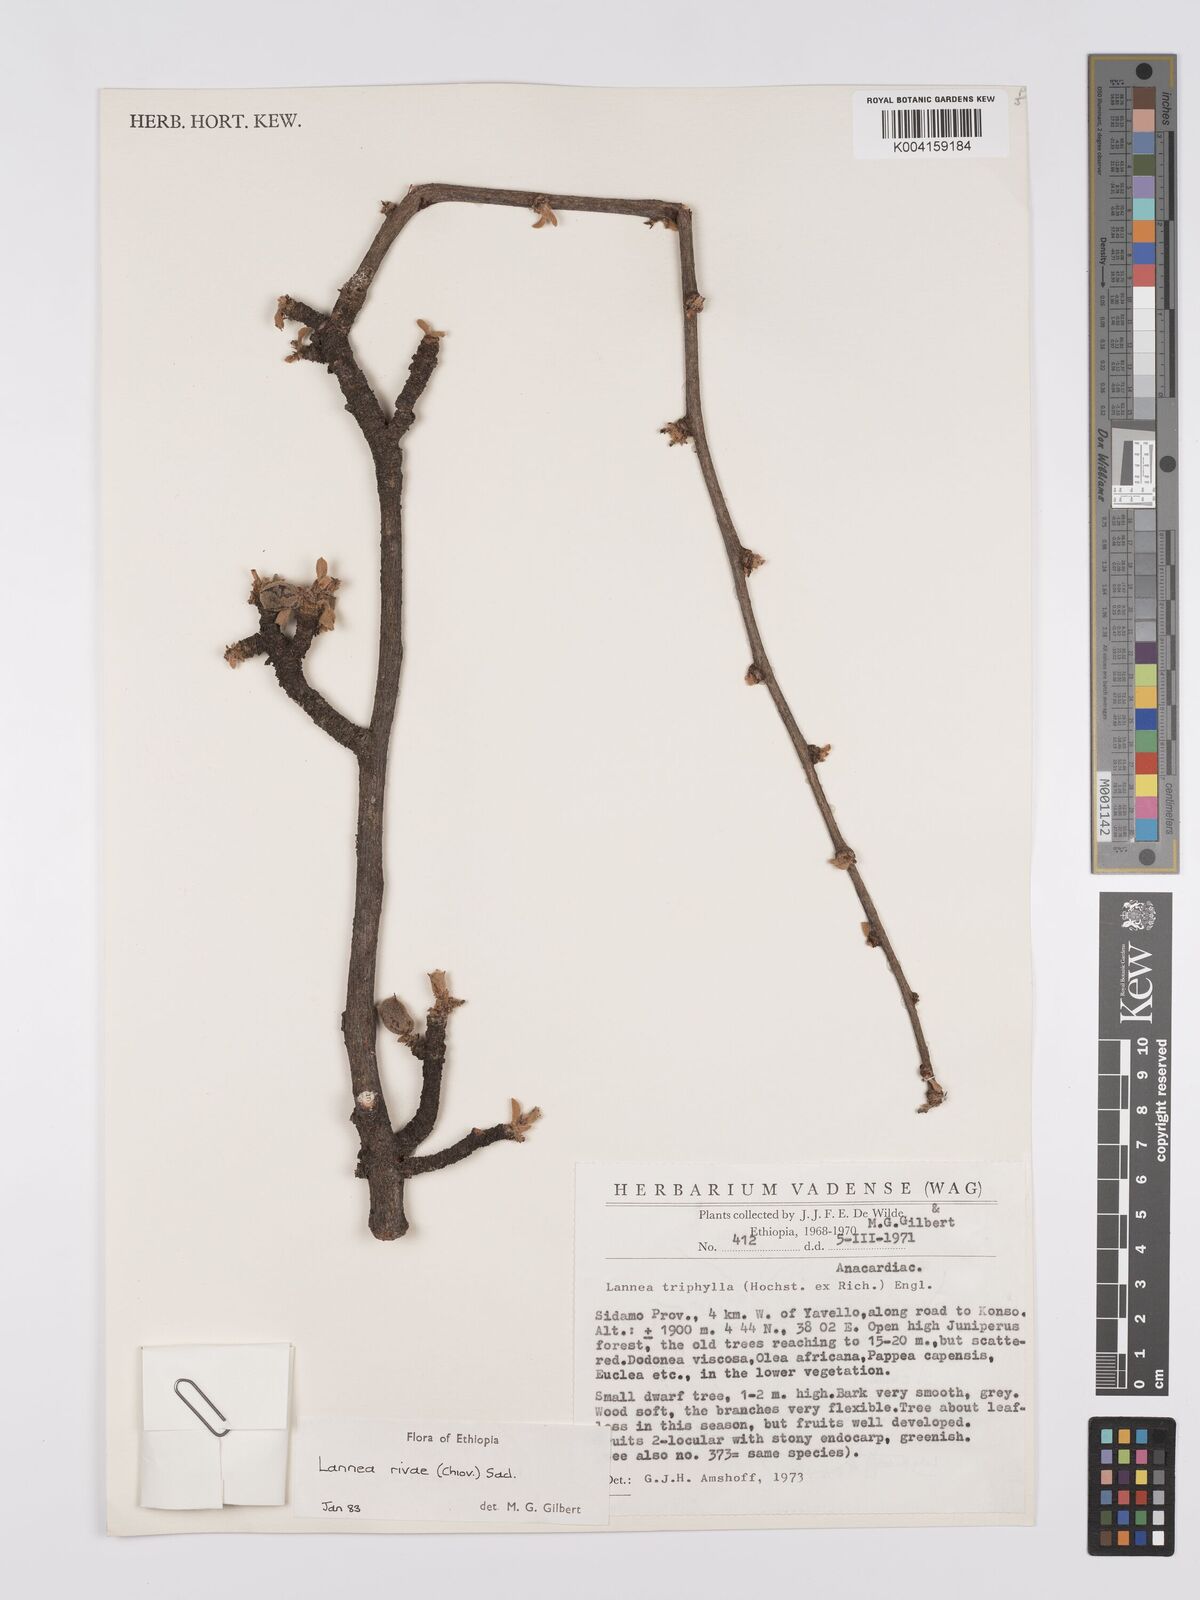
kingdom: Plantae
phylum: Tracheophyta
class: Magnoliopsida
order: Sapindales
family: Anacardiaceae
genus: Lannea
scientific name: Lannea rivae
